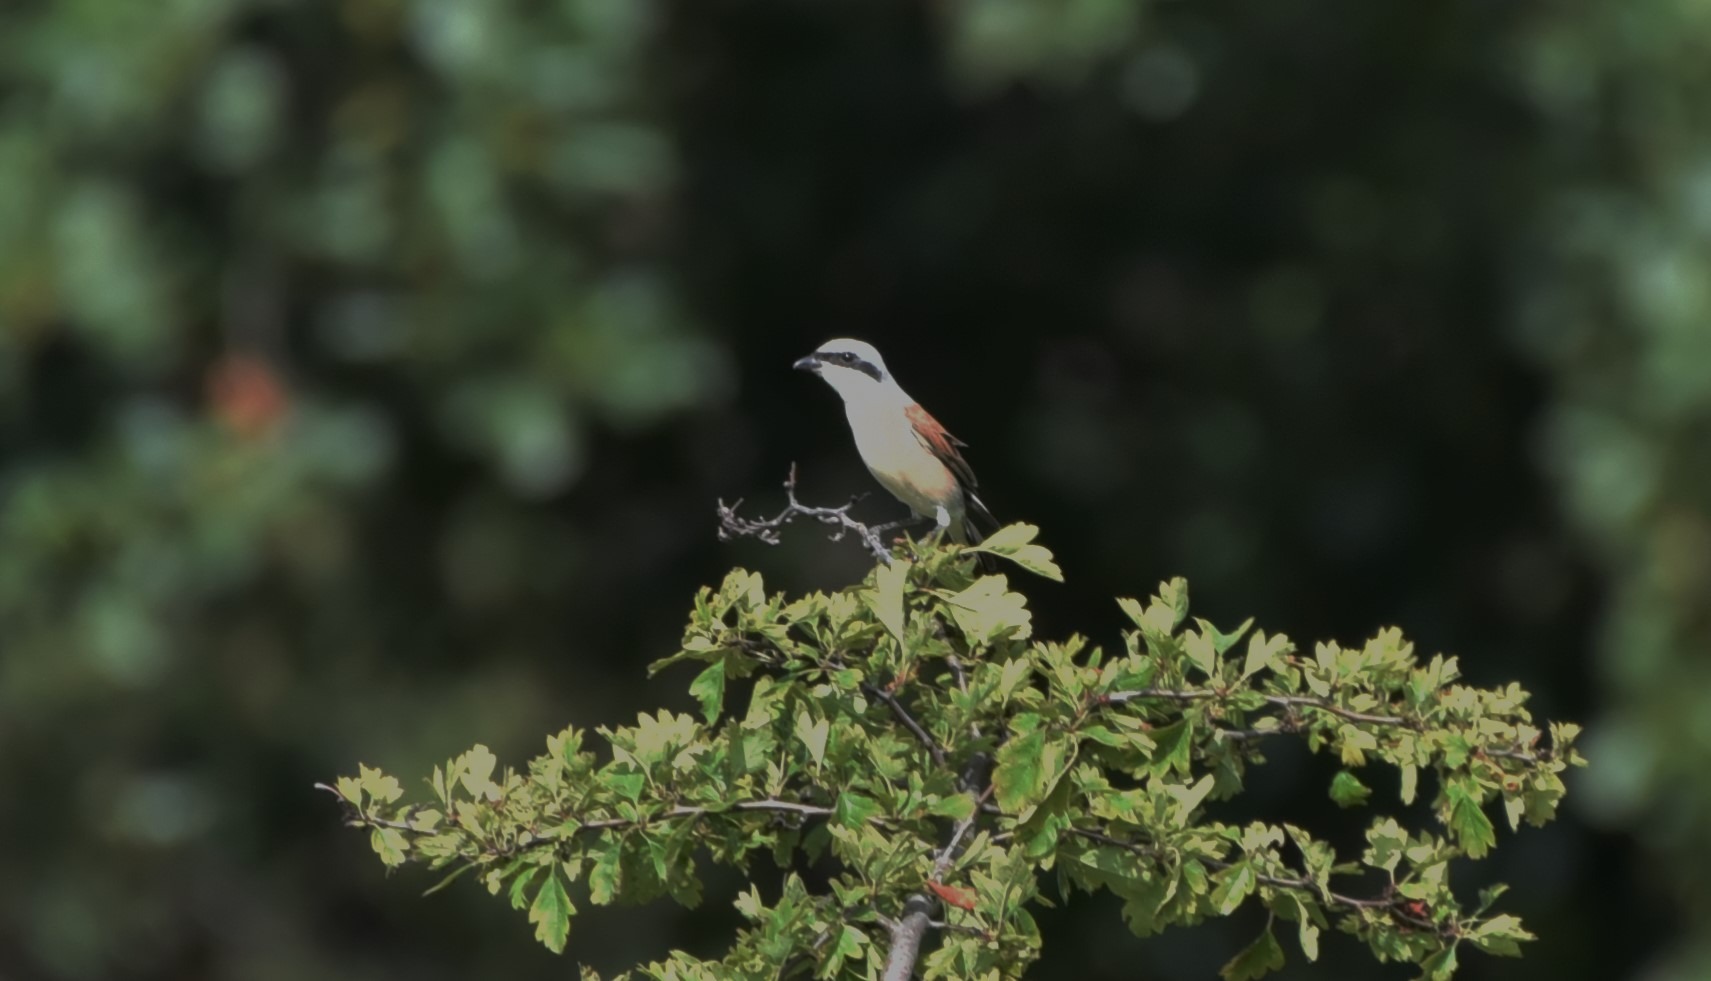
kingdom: Animalia
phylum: Chordata
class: Aves
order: Passeriformes
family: Laniidae
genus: Lanius
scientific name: Lanius collurio
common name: Rødrygget tornskade
